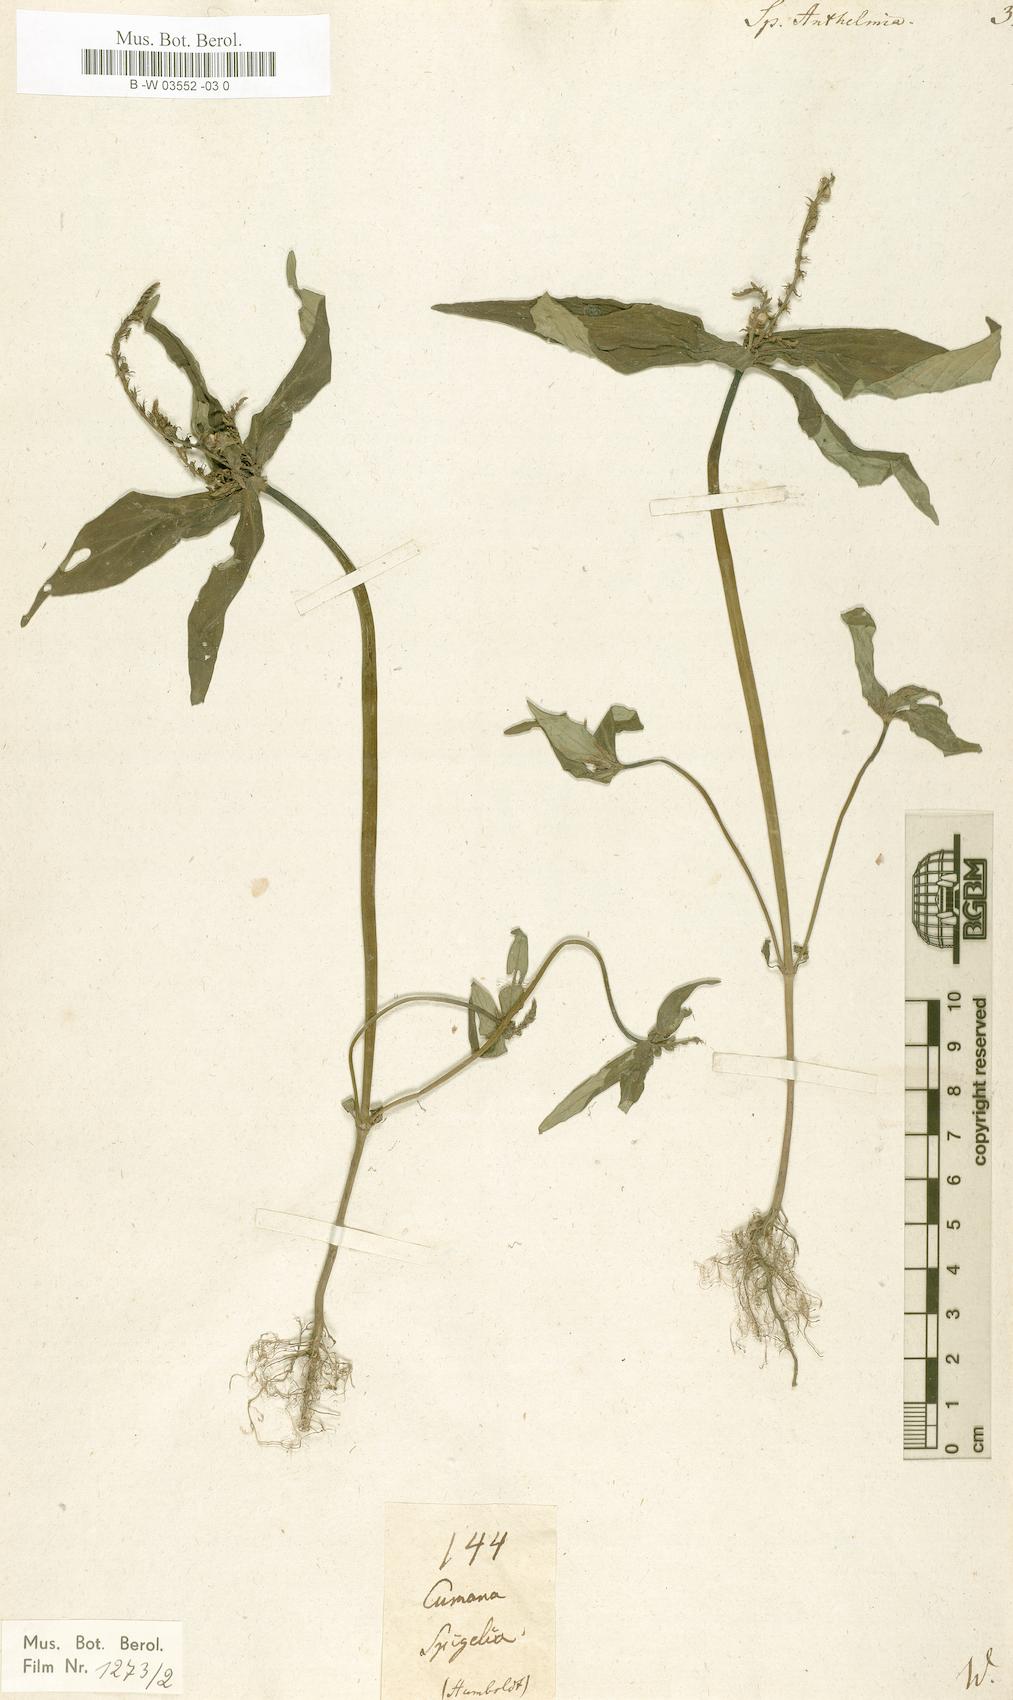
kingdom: Plantae
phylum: Tracheophyta
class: Magnoliopsida
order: Gentianales
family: Loganiaceae
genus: Spigelia
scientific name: Spigelia anthelmia
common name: West indian-pink
